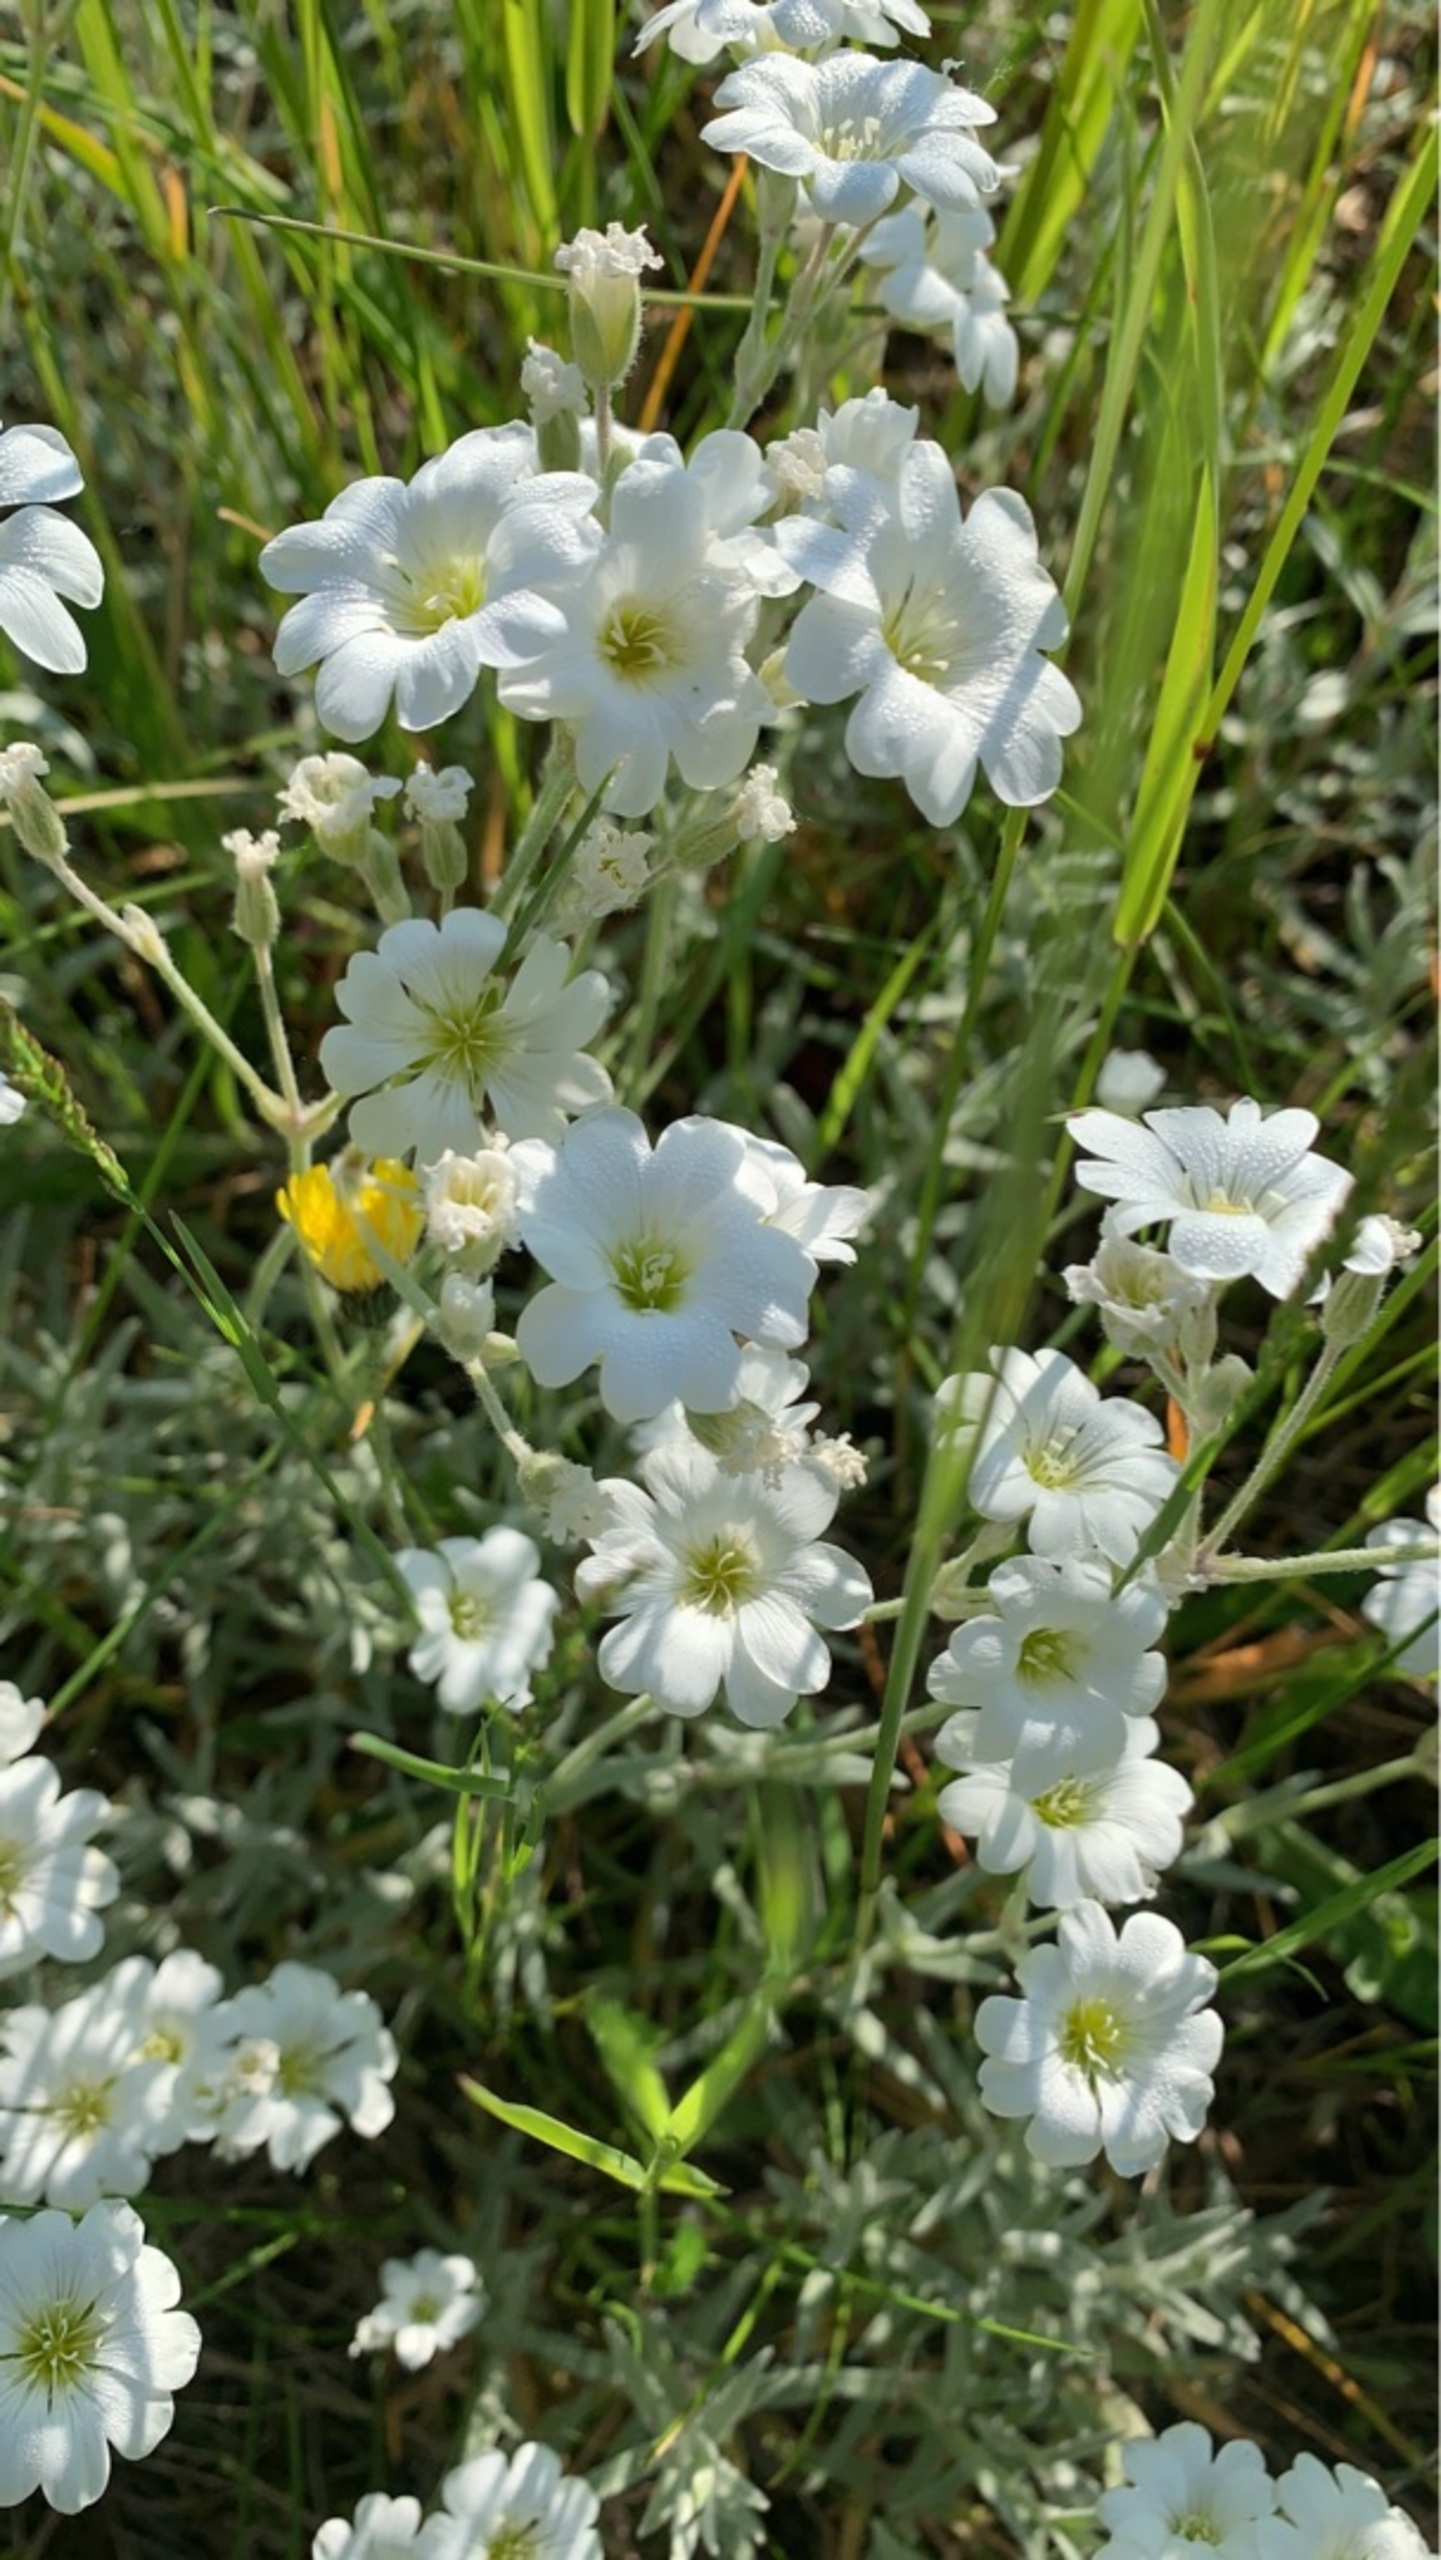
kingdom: Plantae
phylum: Tracheophyta
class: Magnoliopsida
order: Caryophyllales
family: Caryophyllaceae
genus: Cerastium
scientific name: Cerastium tomentosum
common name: Filtet hønsetarm
